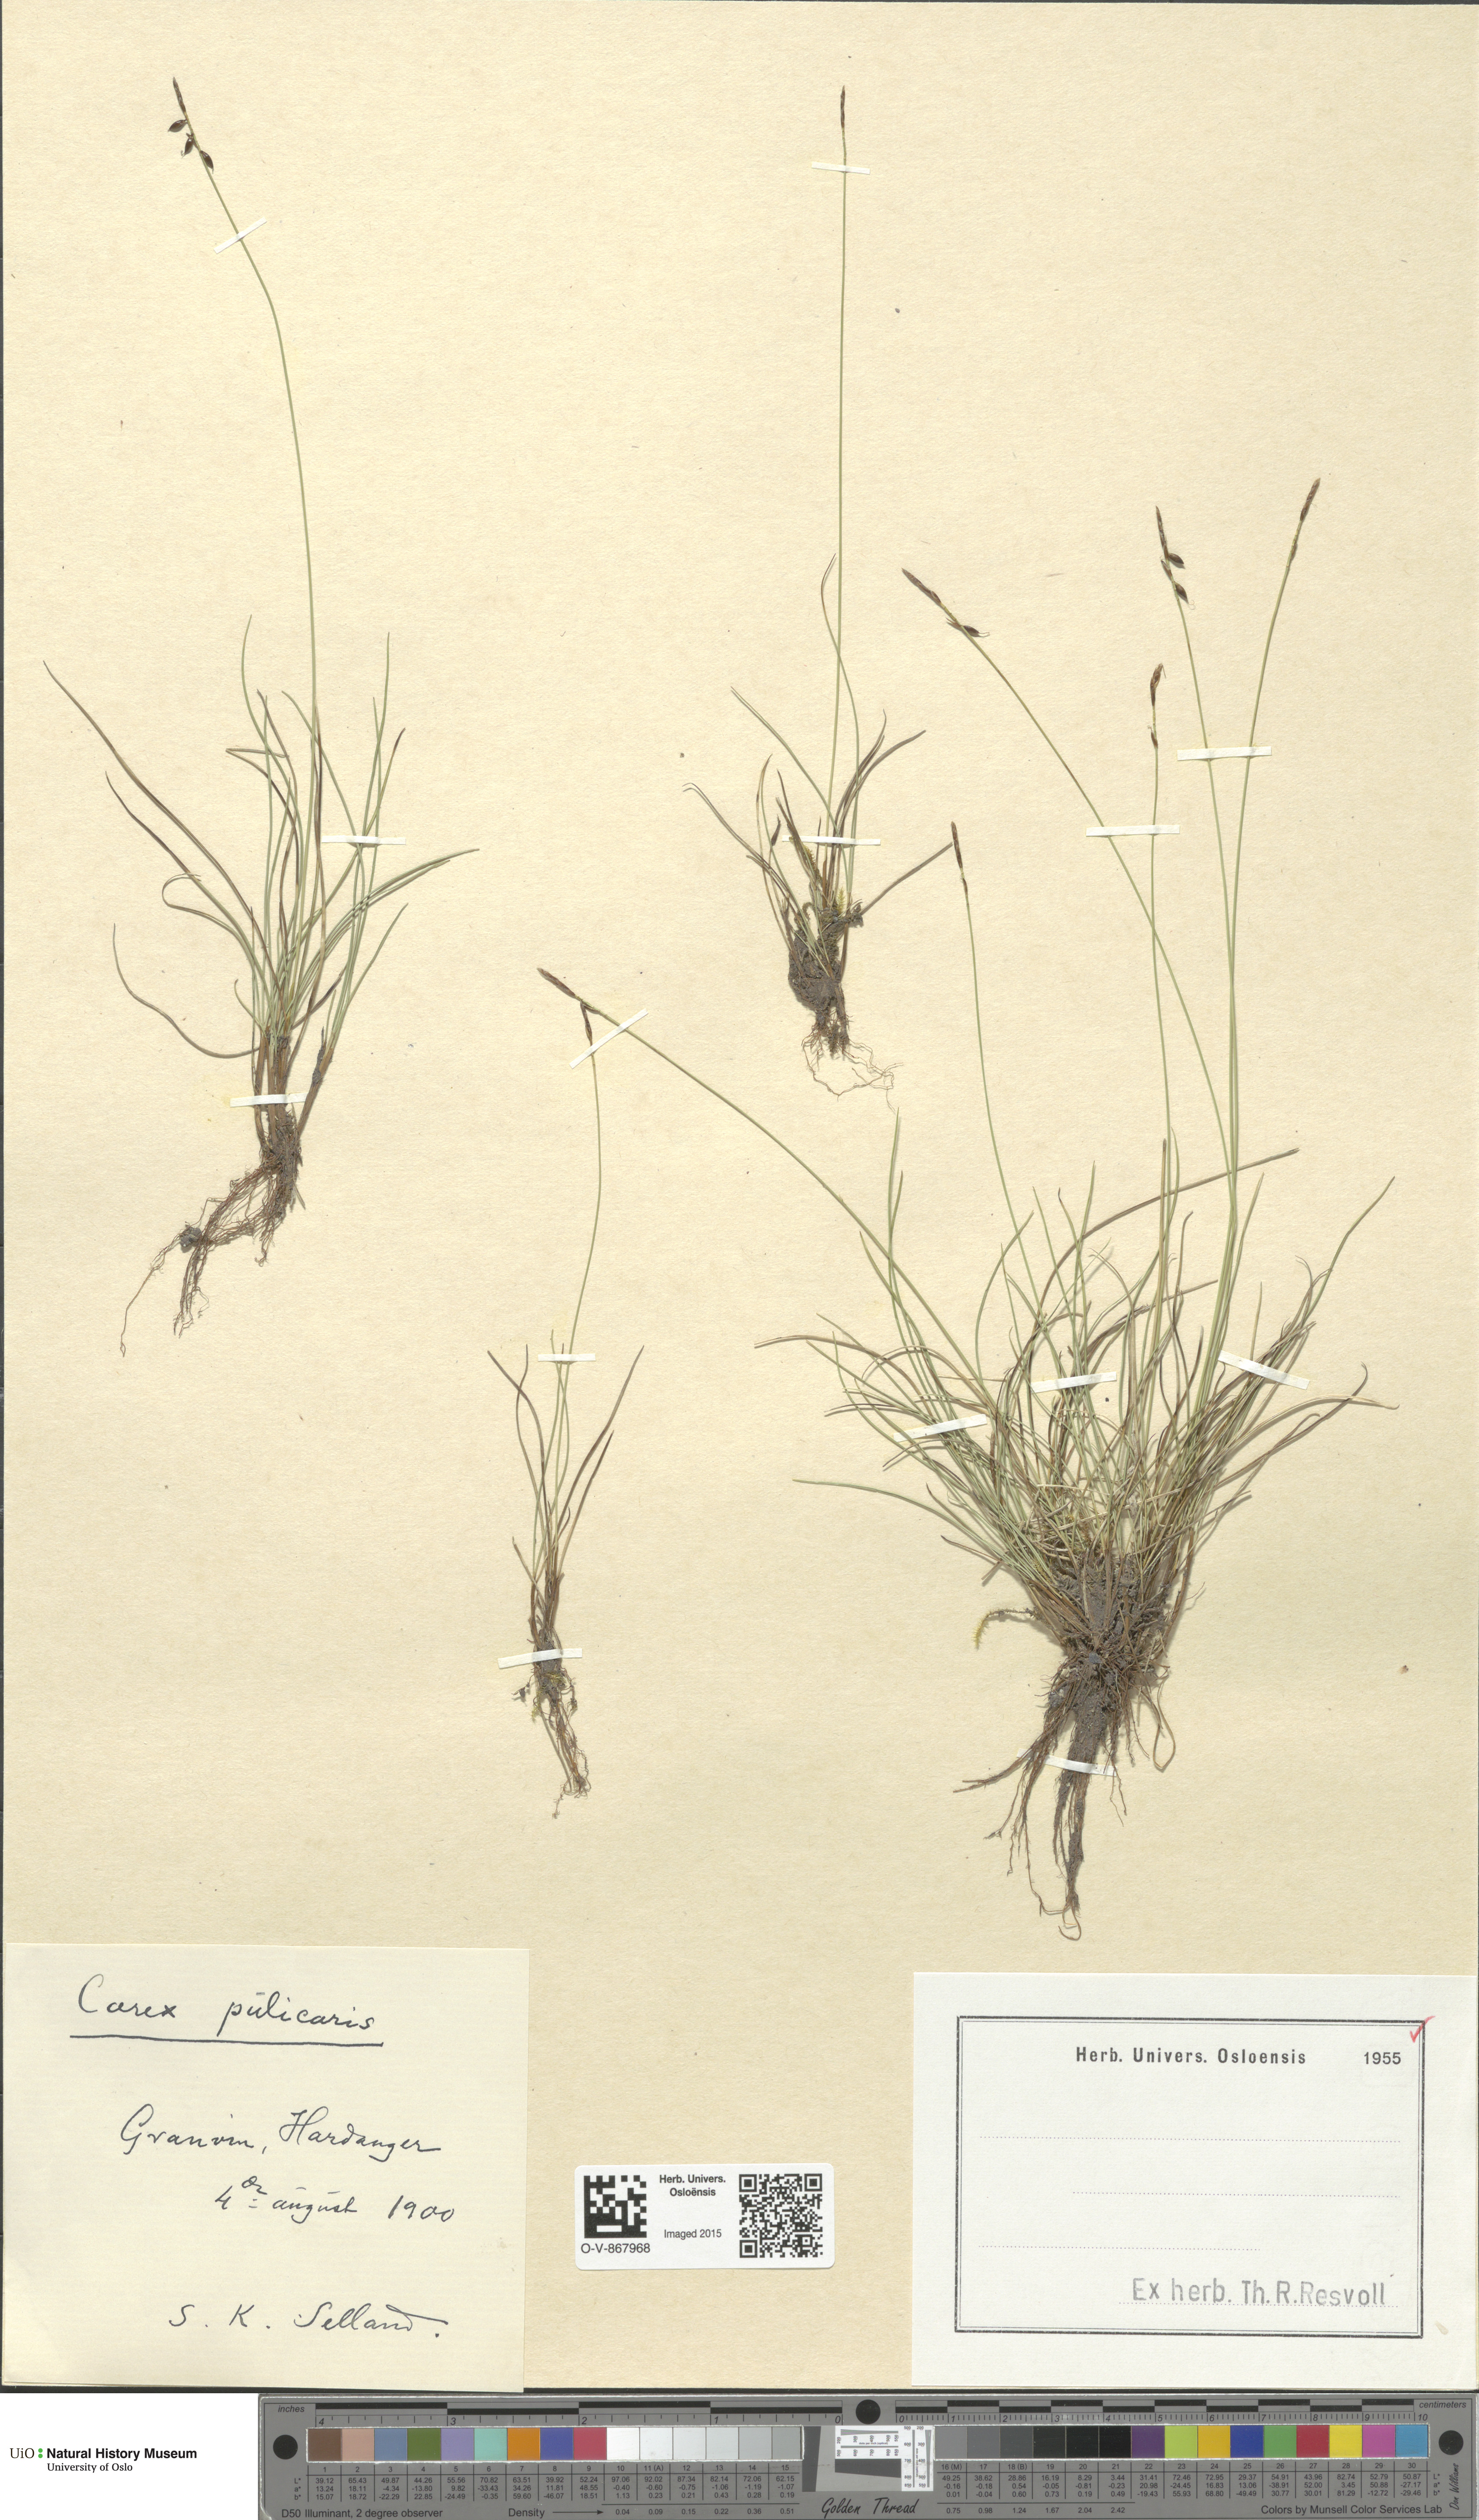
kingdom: Plantae
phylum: Tracheophyta
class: Liliopsida
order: Poales
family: Cyperaceae
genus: Carex
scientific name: Carex pulicaris
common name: Flea sedge
